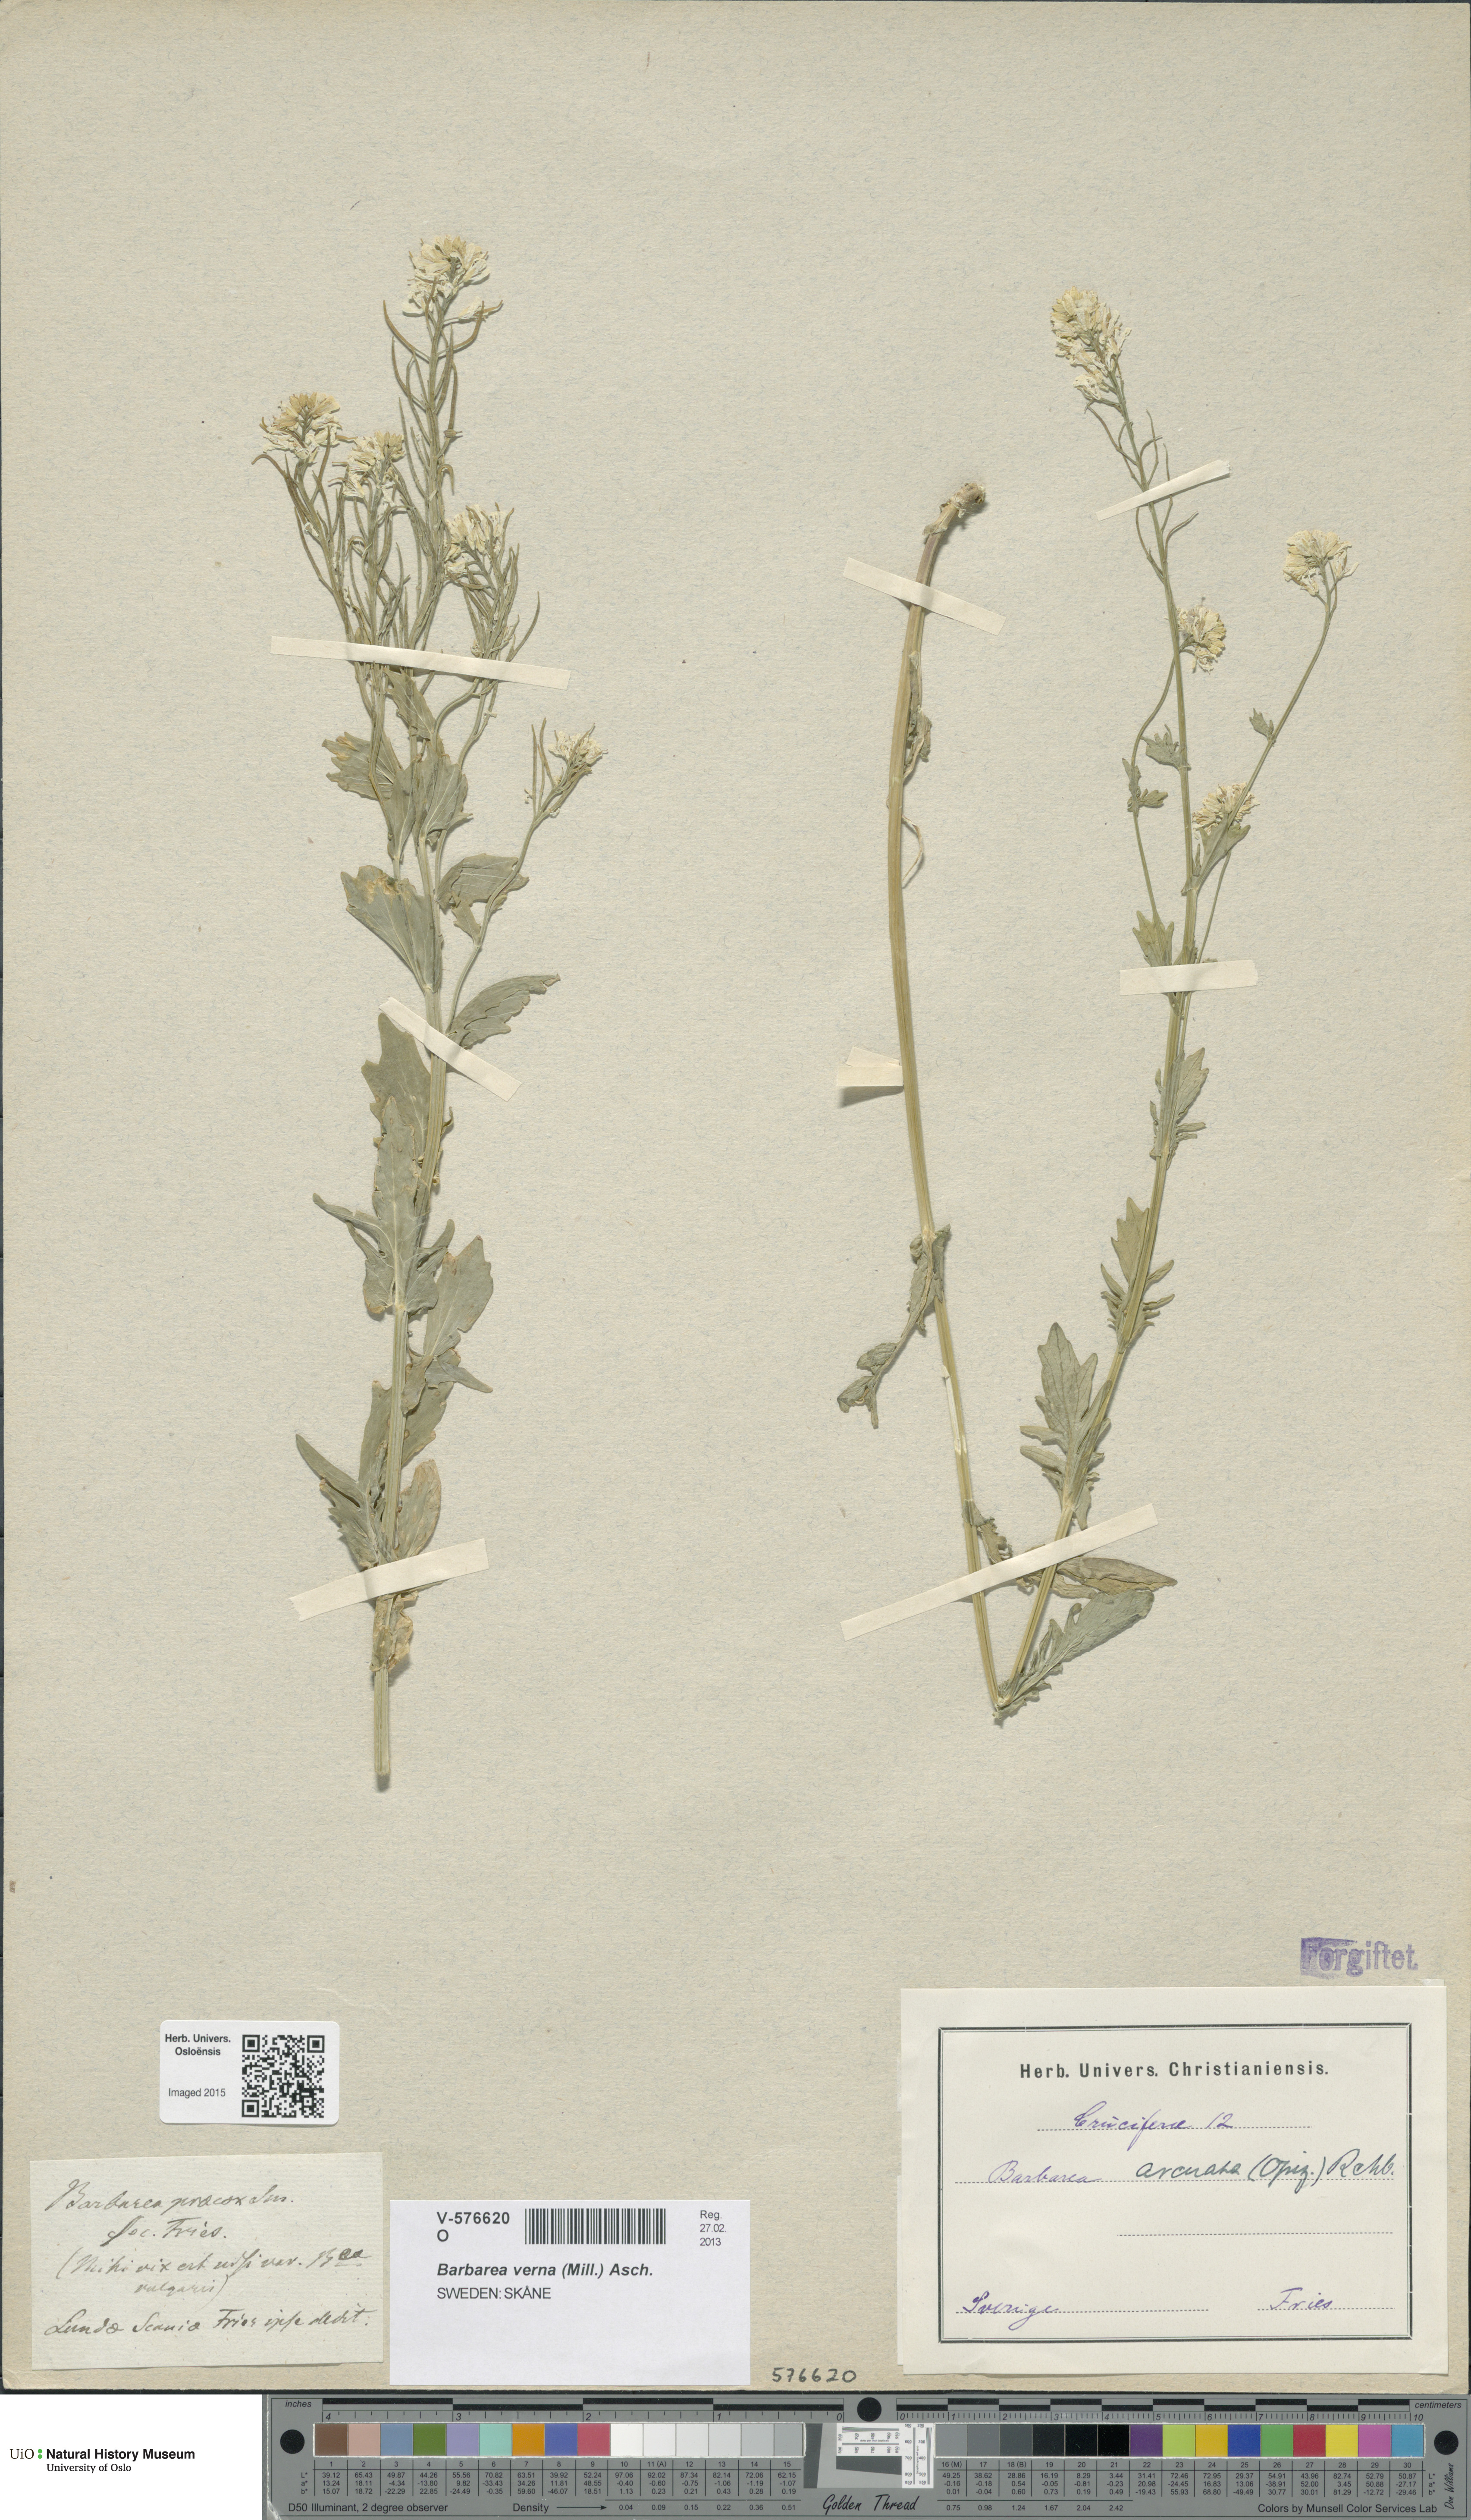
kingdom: Plantae
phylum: Tracheophyta
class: Magnoliopsida
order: Brassicales
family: Brassicaceae
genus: Barbarea
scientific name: Barbarea verna
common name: American cress
